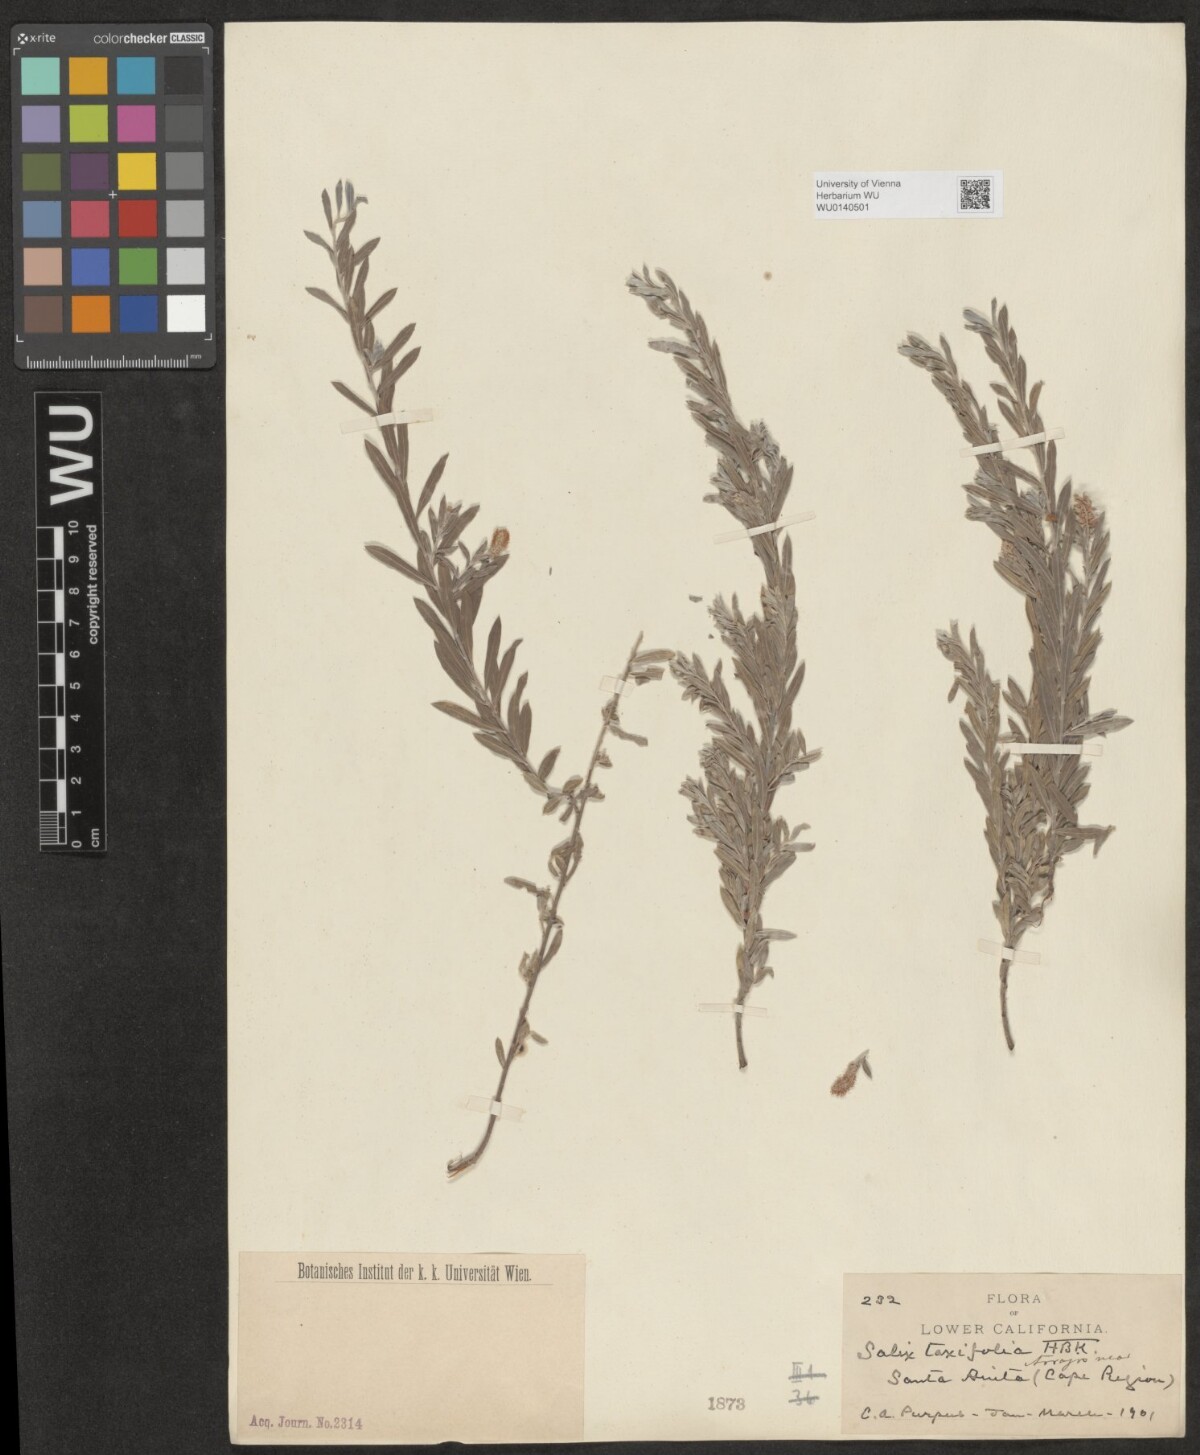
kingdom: Plantae
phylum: Tracheophyta
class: Magnoliopsida
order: Malpighiales
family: Salicaceae
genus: Salix
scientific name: Salix taxifolia
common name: Yew-leaf willow
